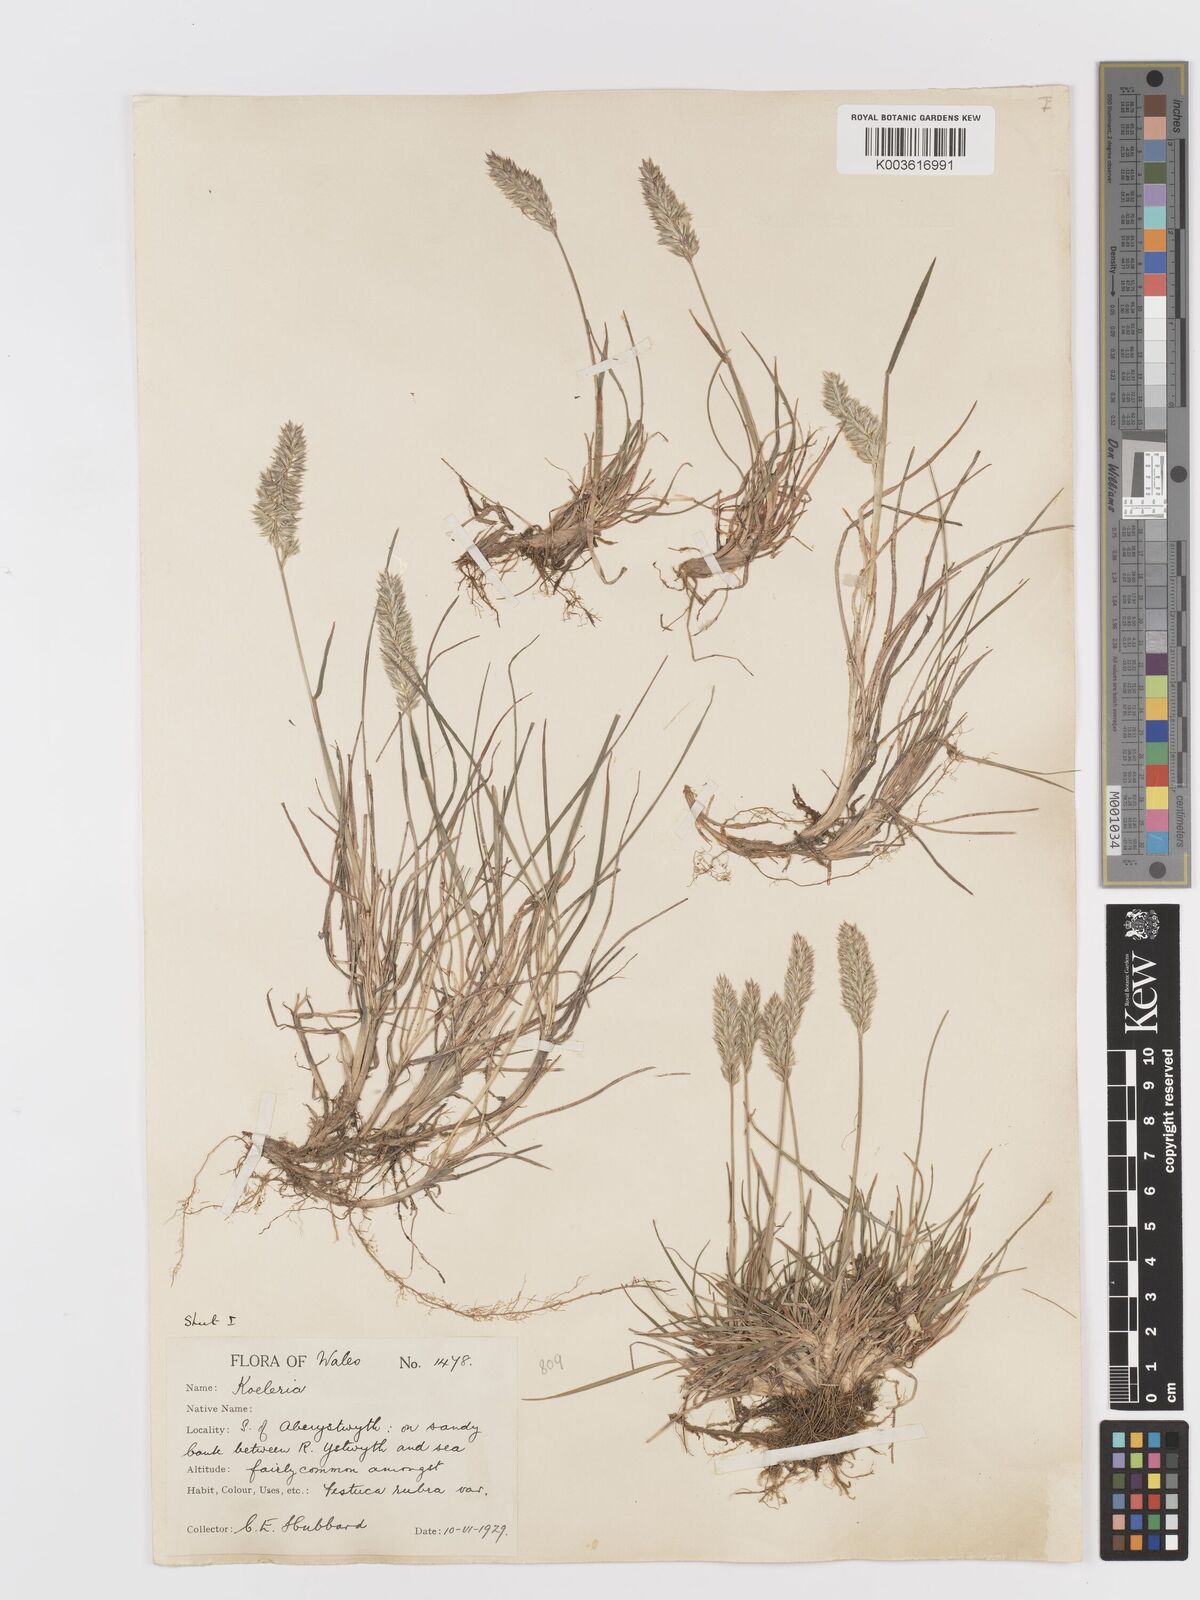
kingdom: Plantae
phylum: Tracheophyta
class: Liliopsida
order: Poales
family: Poaceae
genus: Koeleria
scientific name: Koeleria macrantha
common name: Crested hair-grass
